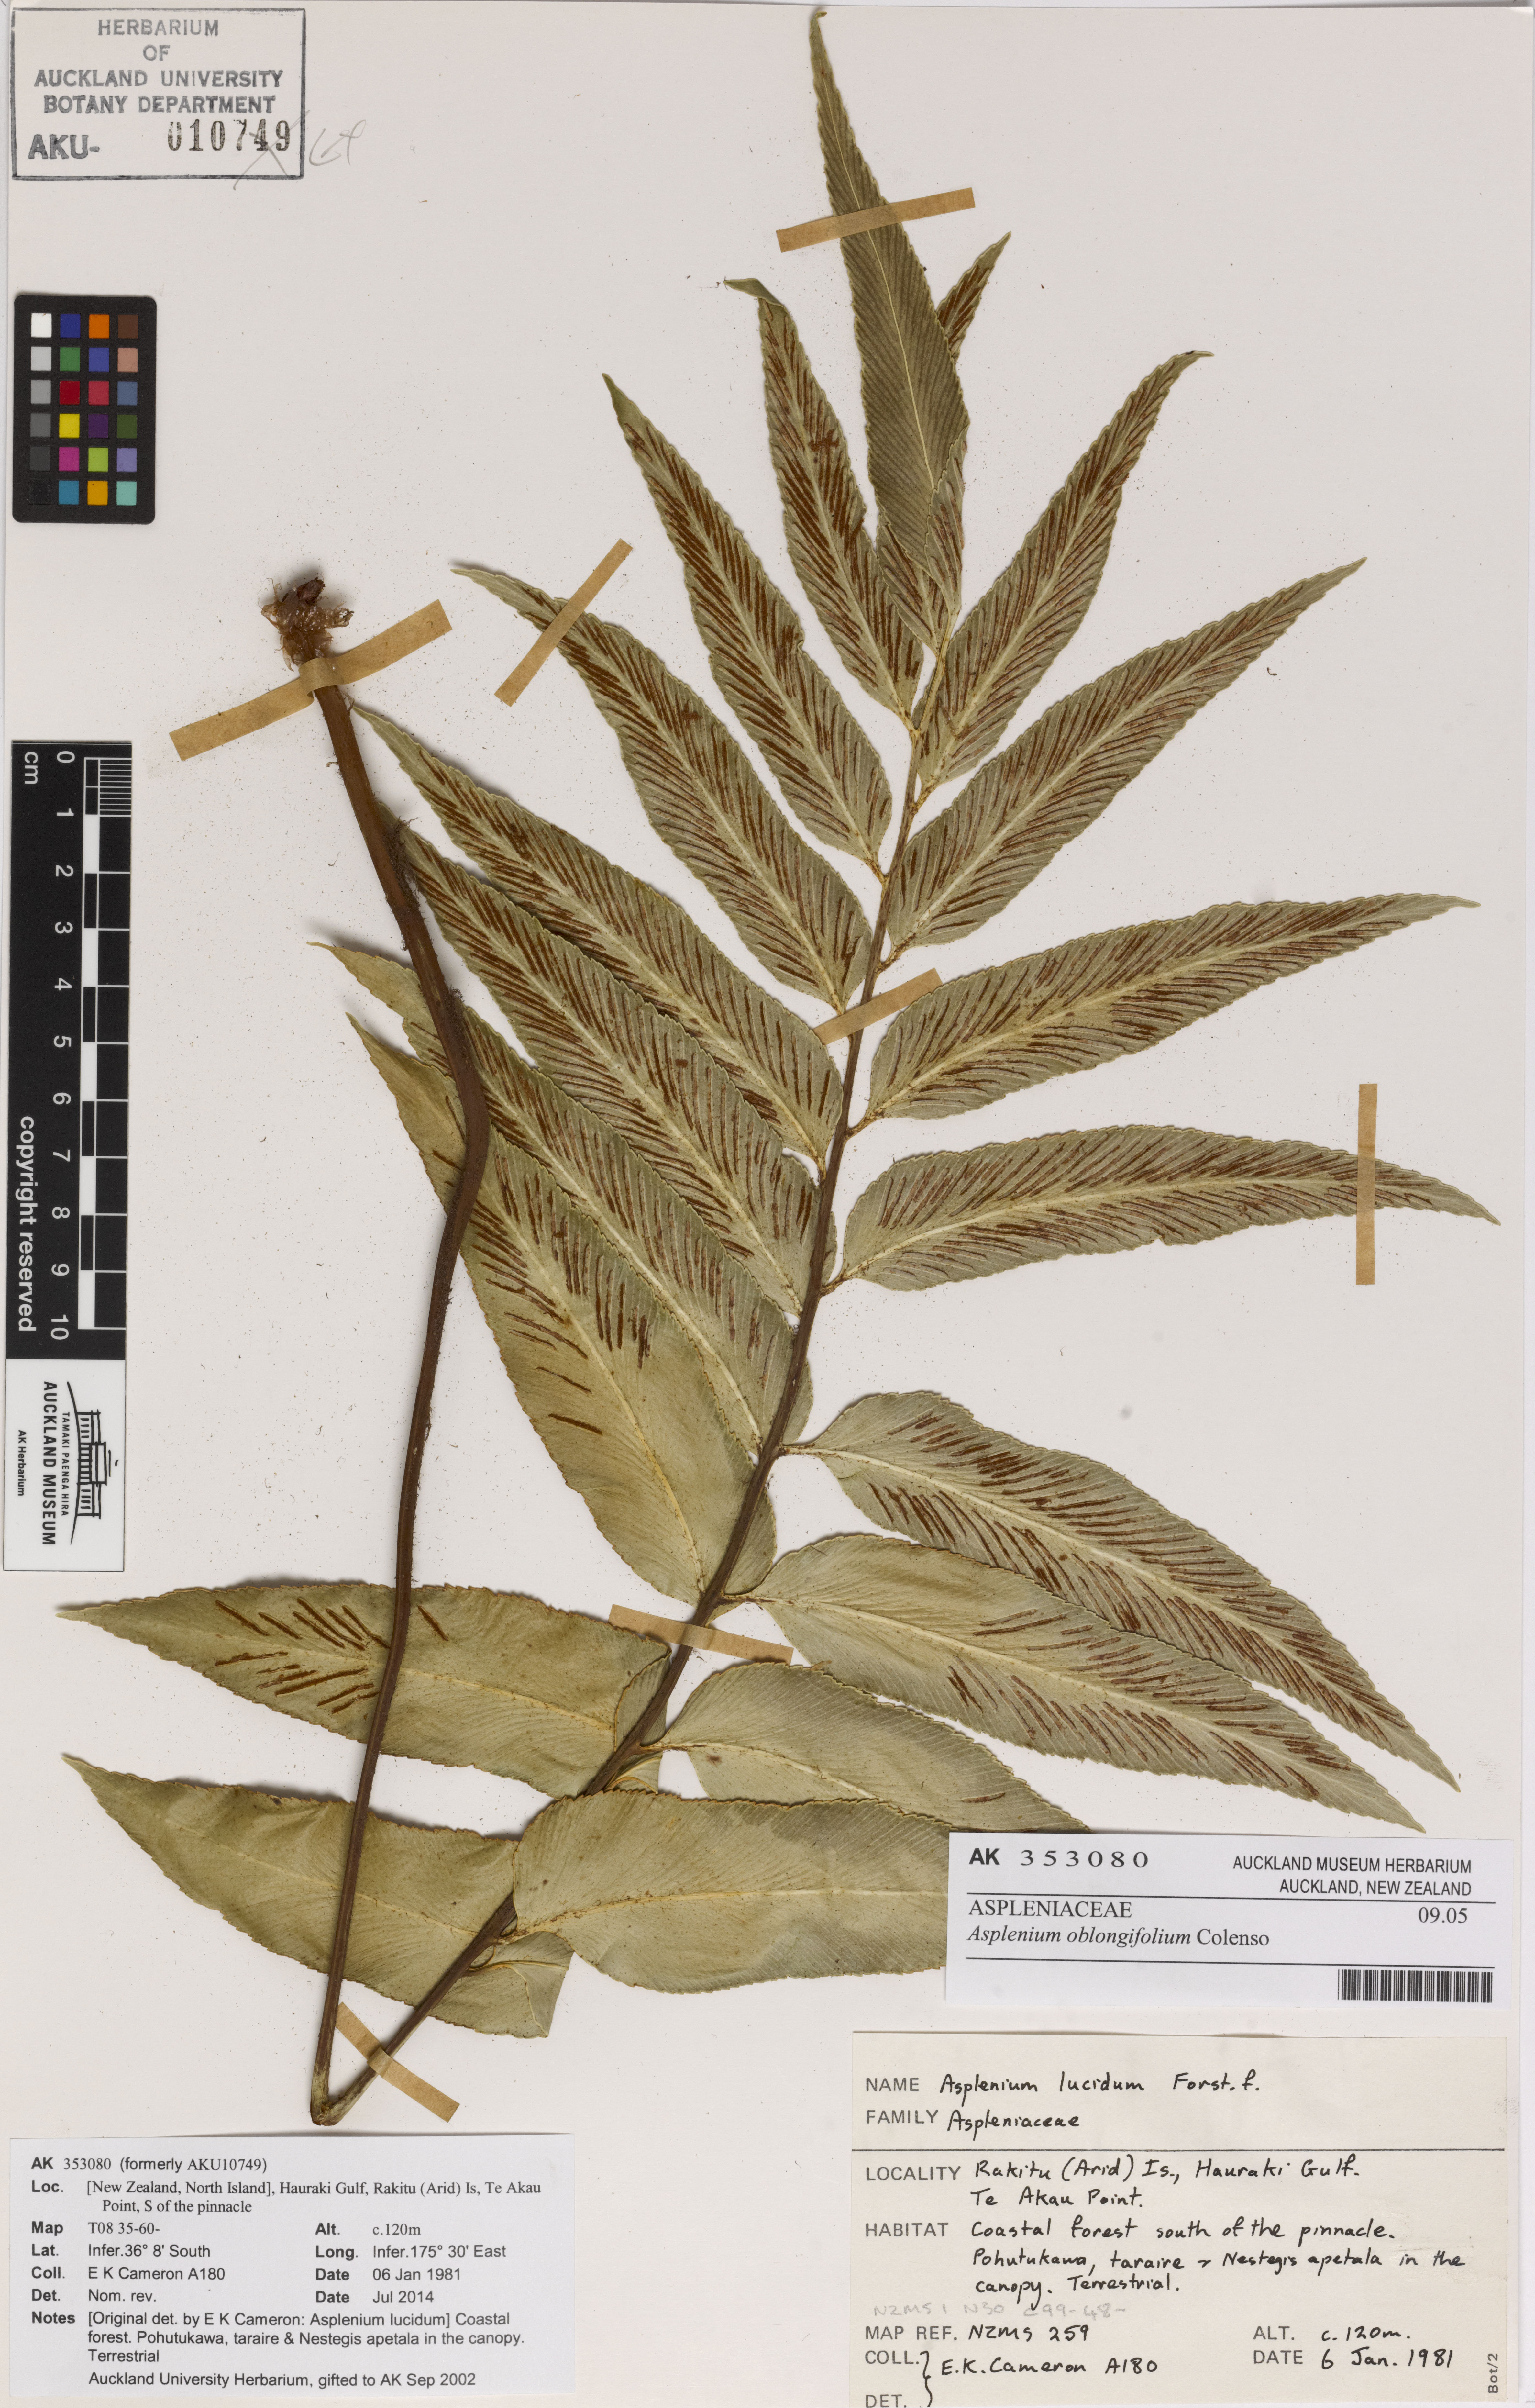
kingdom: Plantae
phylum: Tracheophyta
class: Polypodiopsida
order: Polypodiales
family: Aspleniaceae
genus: Asplenium
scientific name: Asplenium oblongifolium
